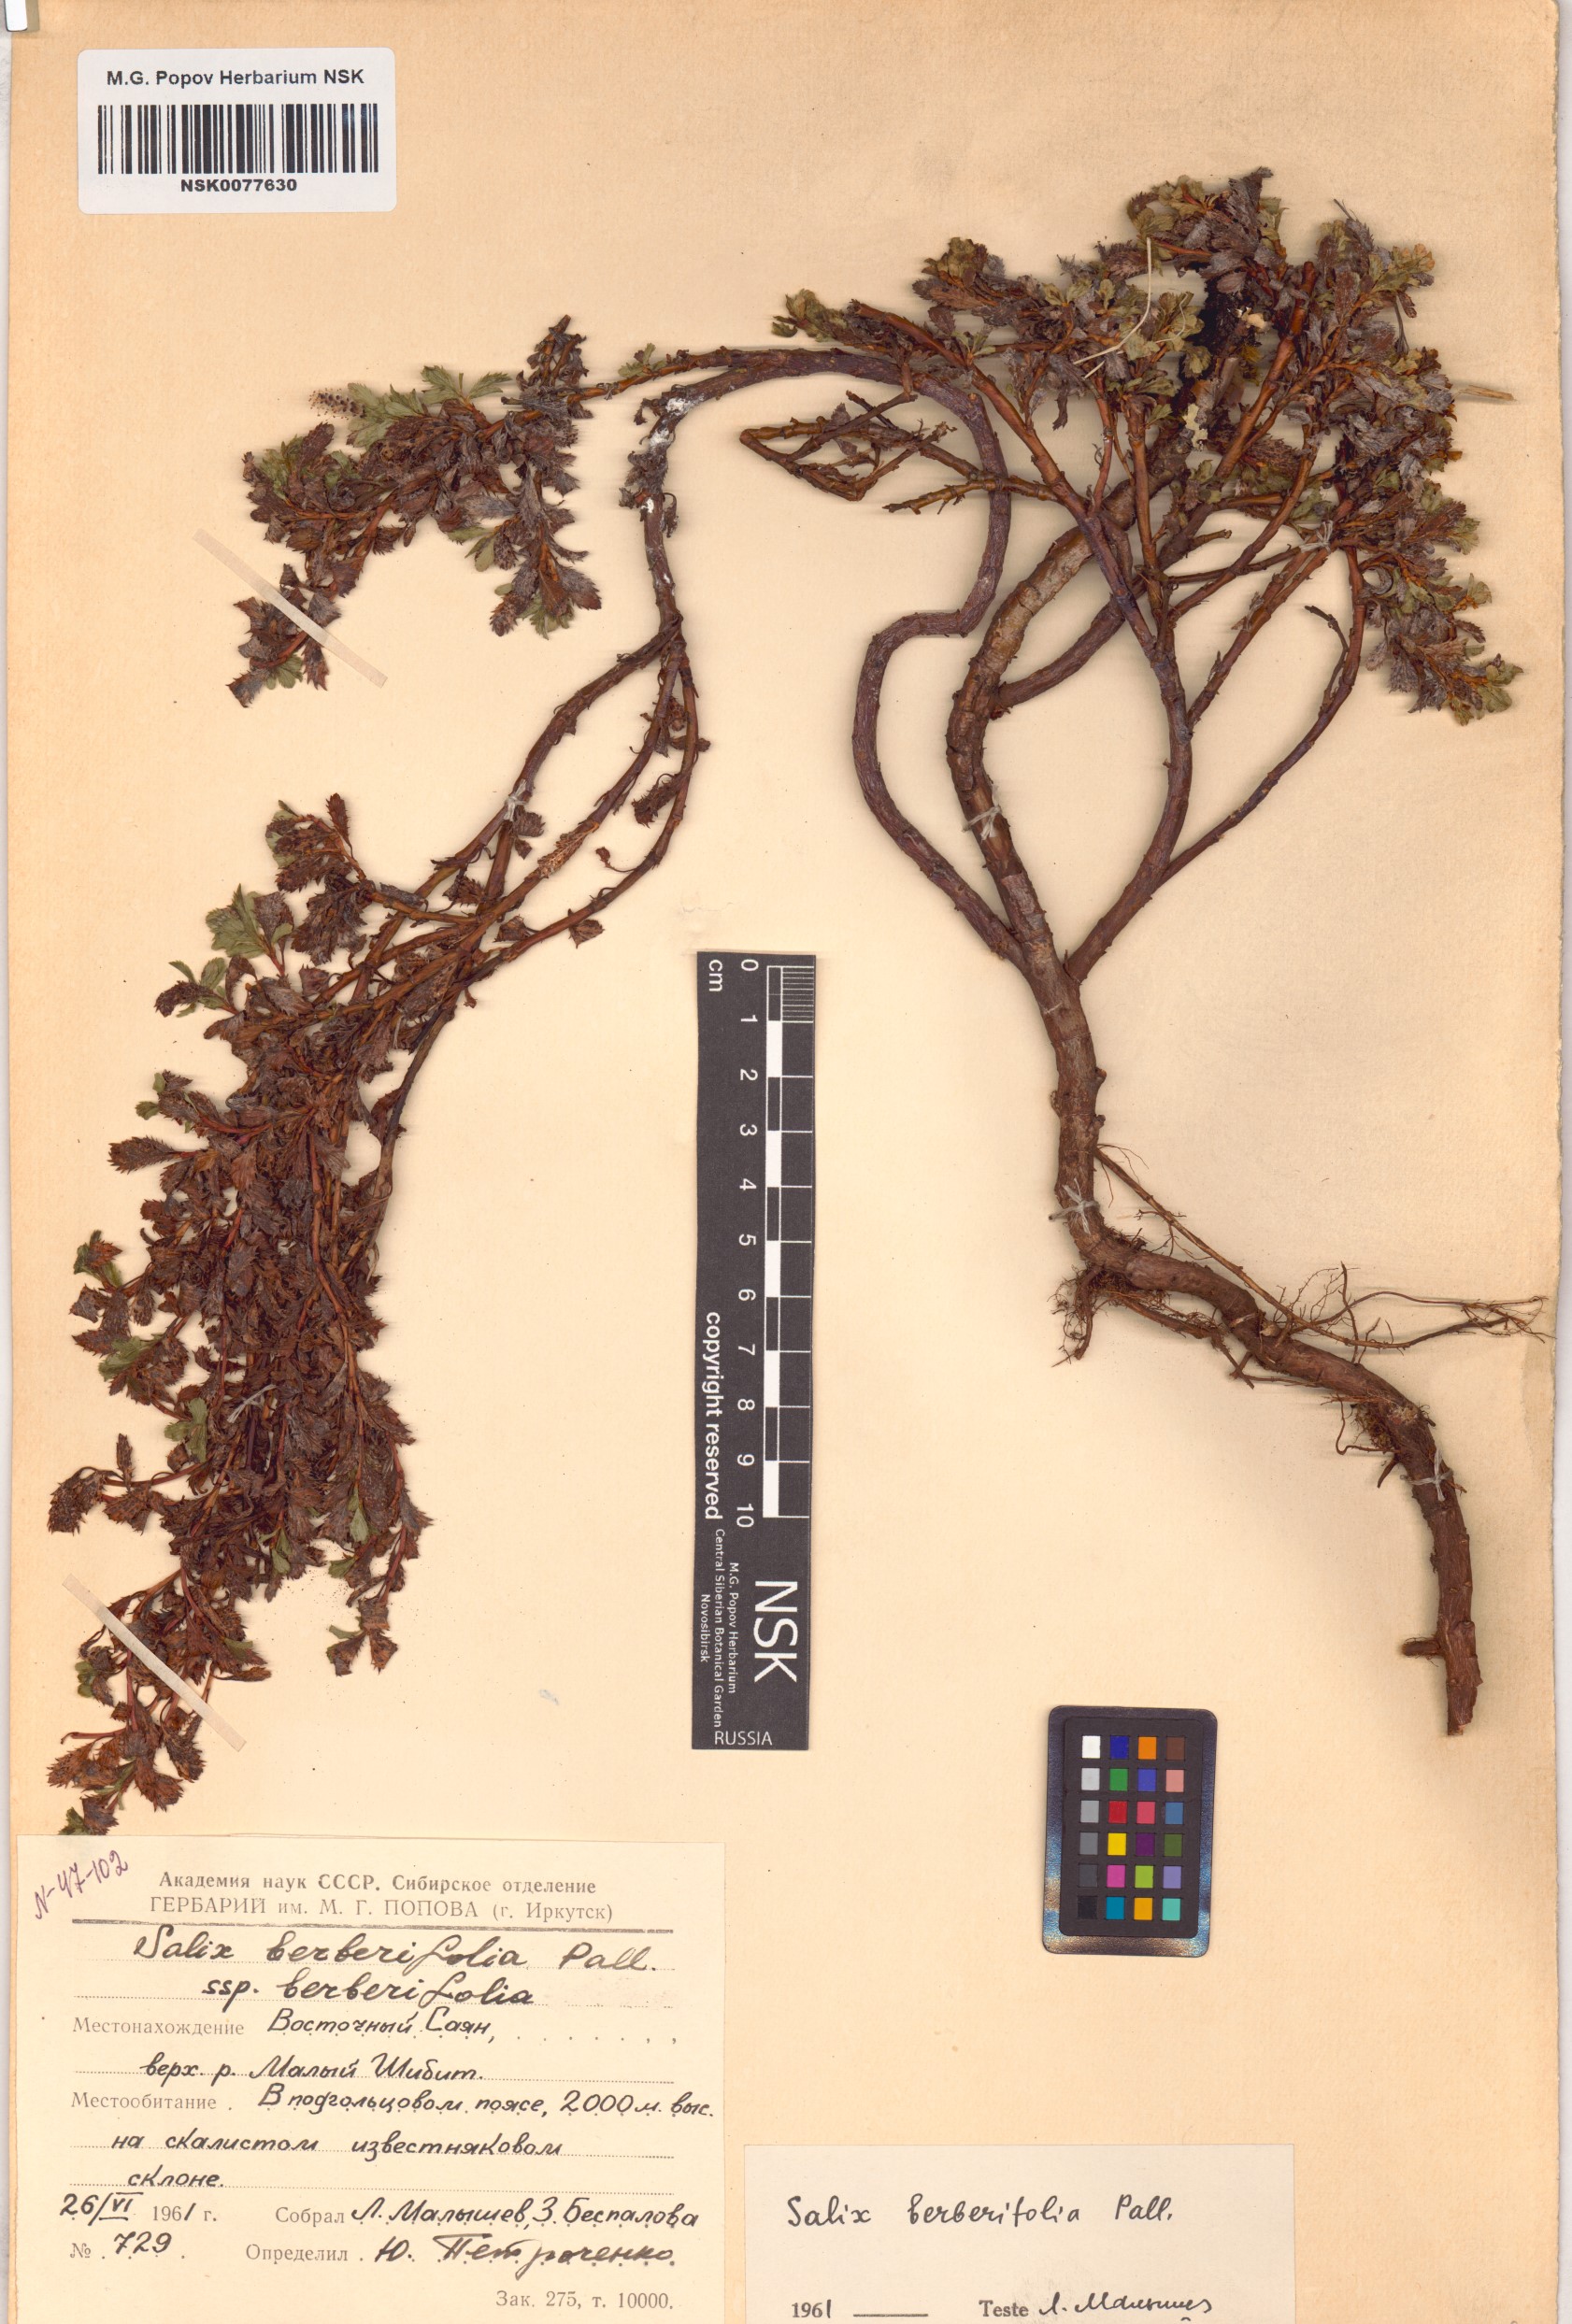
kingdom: Plantae
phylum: Tracheophyta
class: Magnoliopsida
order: Malpighiales
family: Salicaceae
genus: Salix
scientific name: Salix berberifolia
